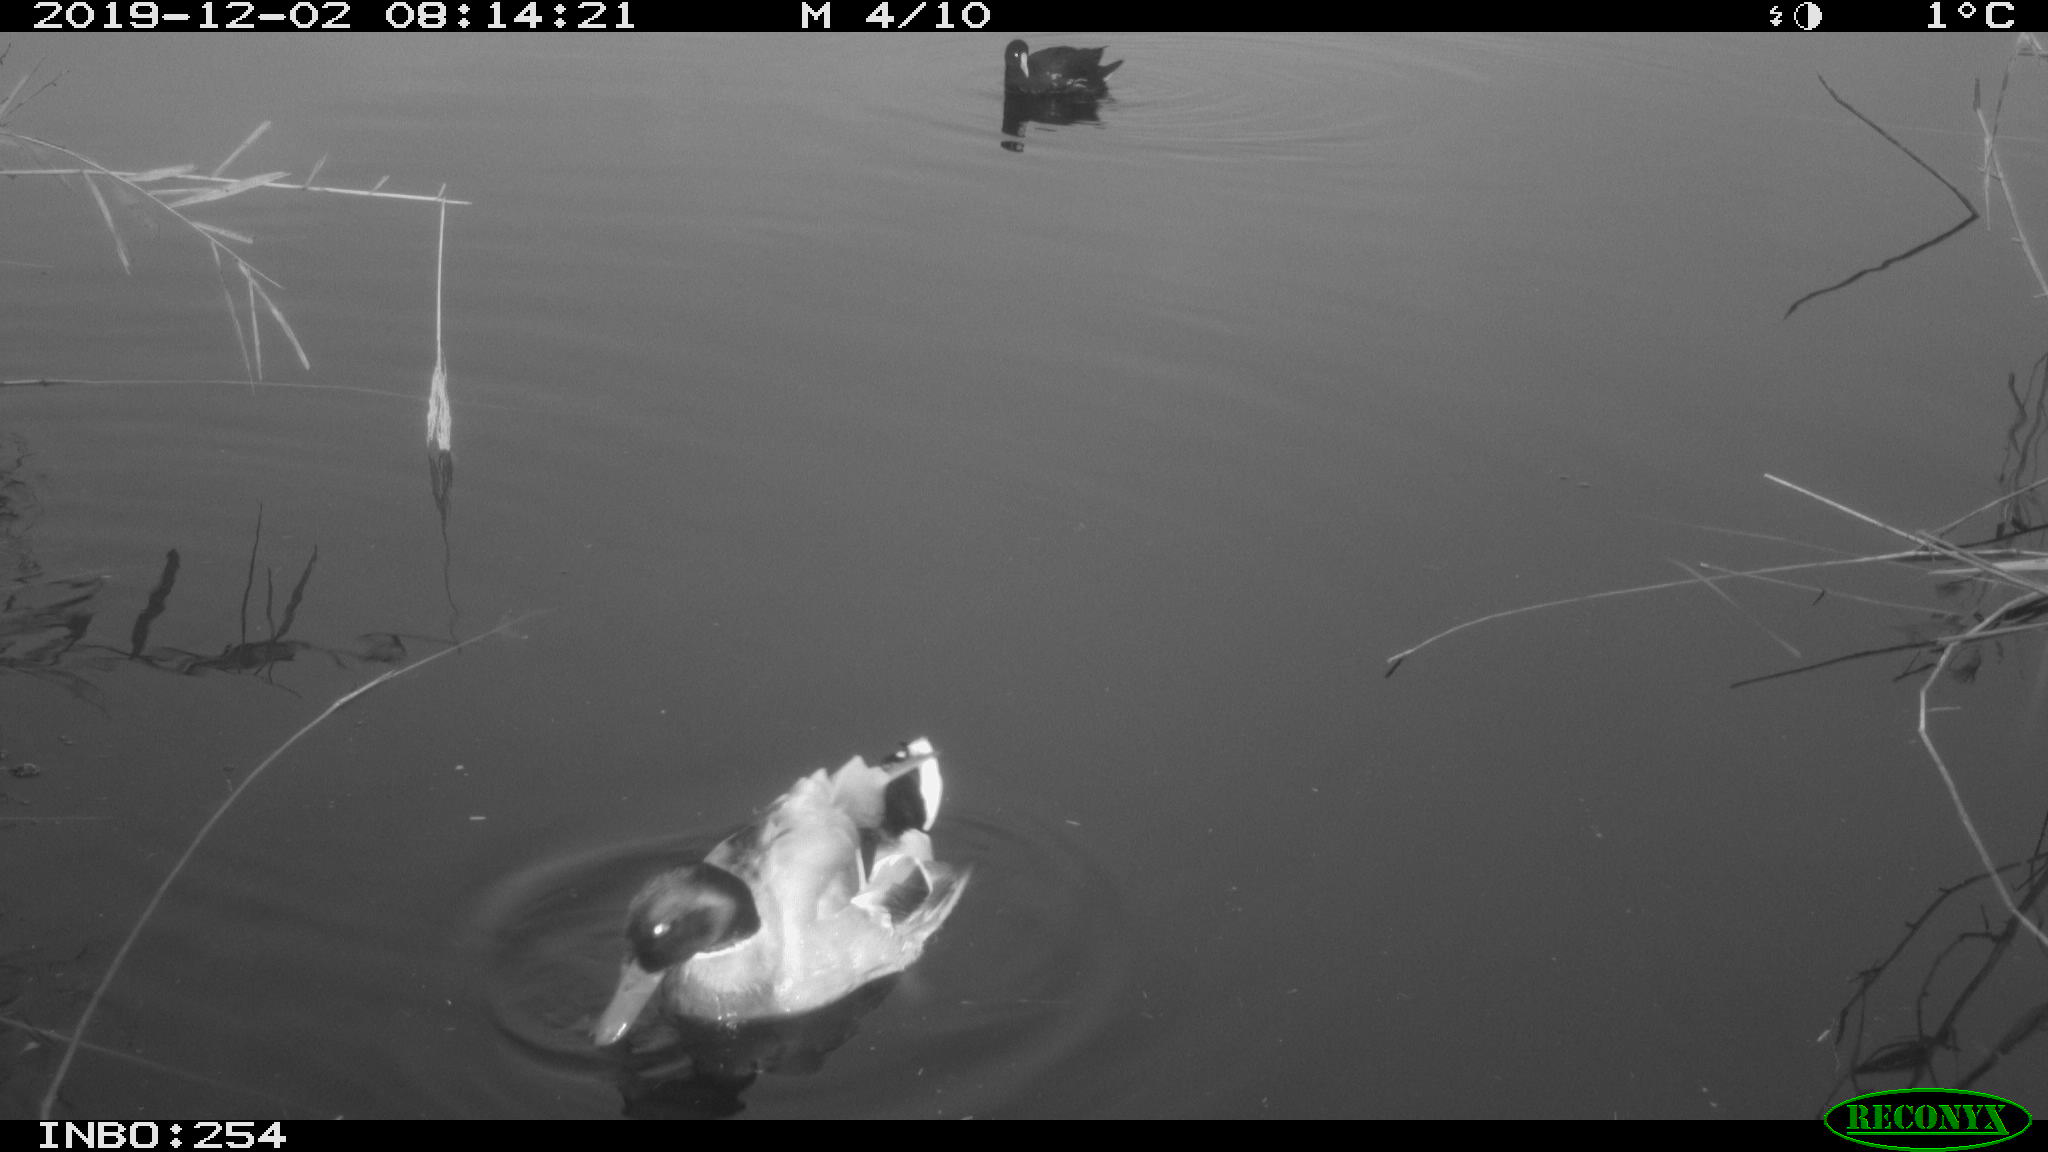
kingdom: Animalia
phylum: Chordata
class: Aves
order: Gruiformes
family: Rallidae
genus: Gallinula
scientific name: Gallinula chloropus
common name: Common moorhen
